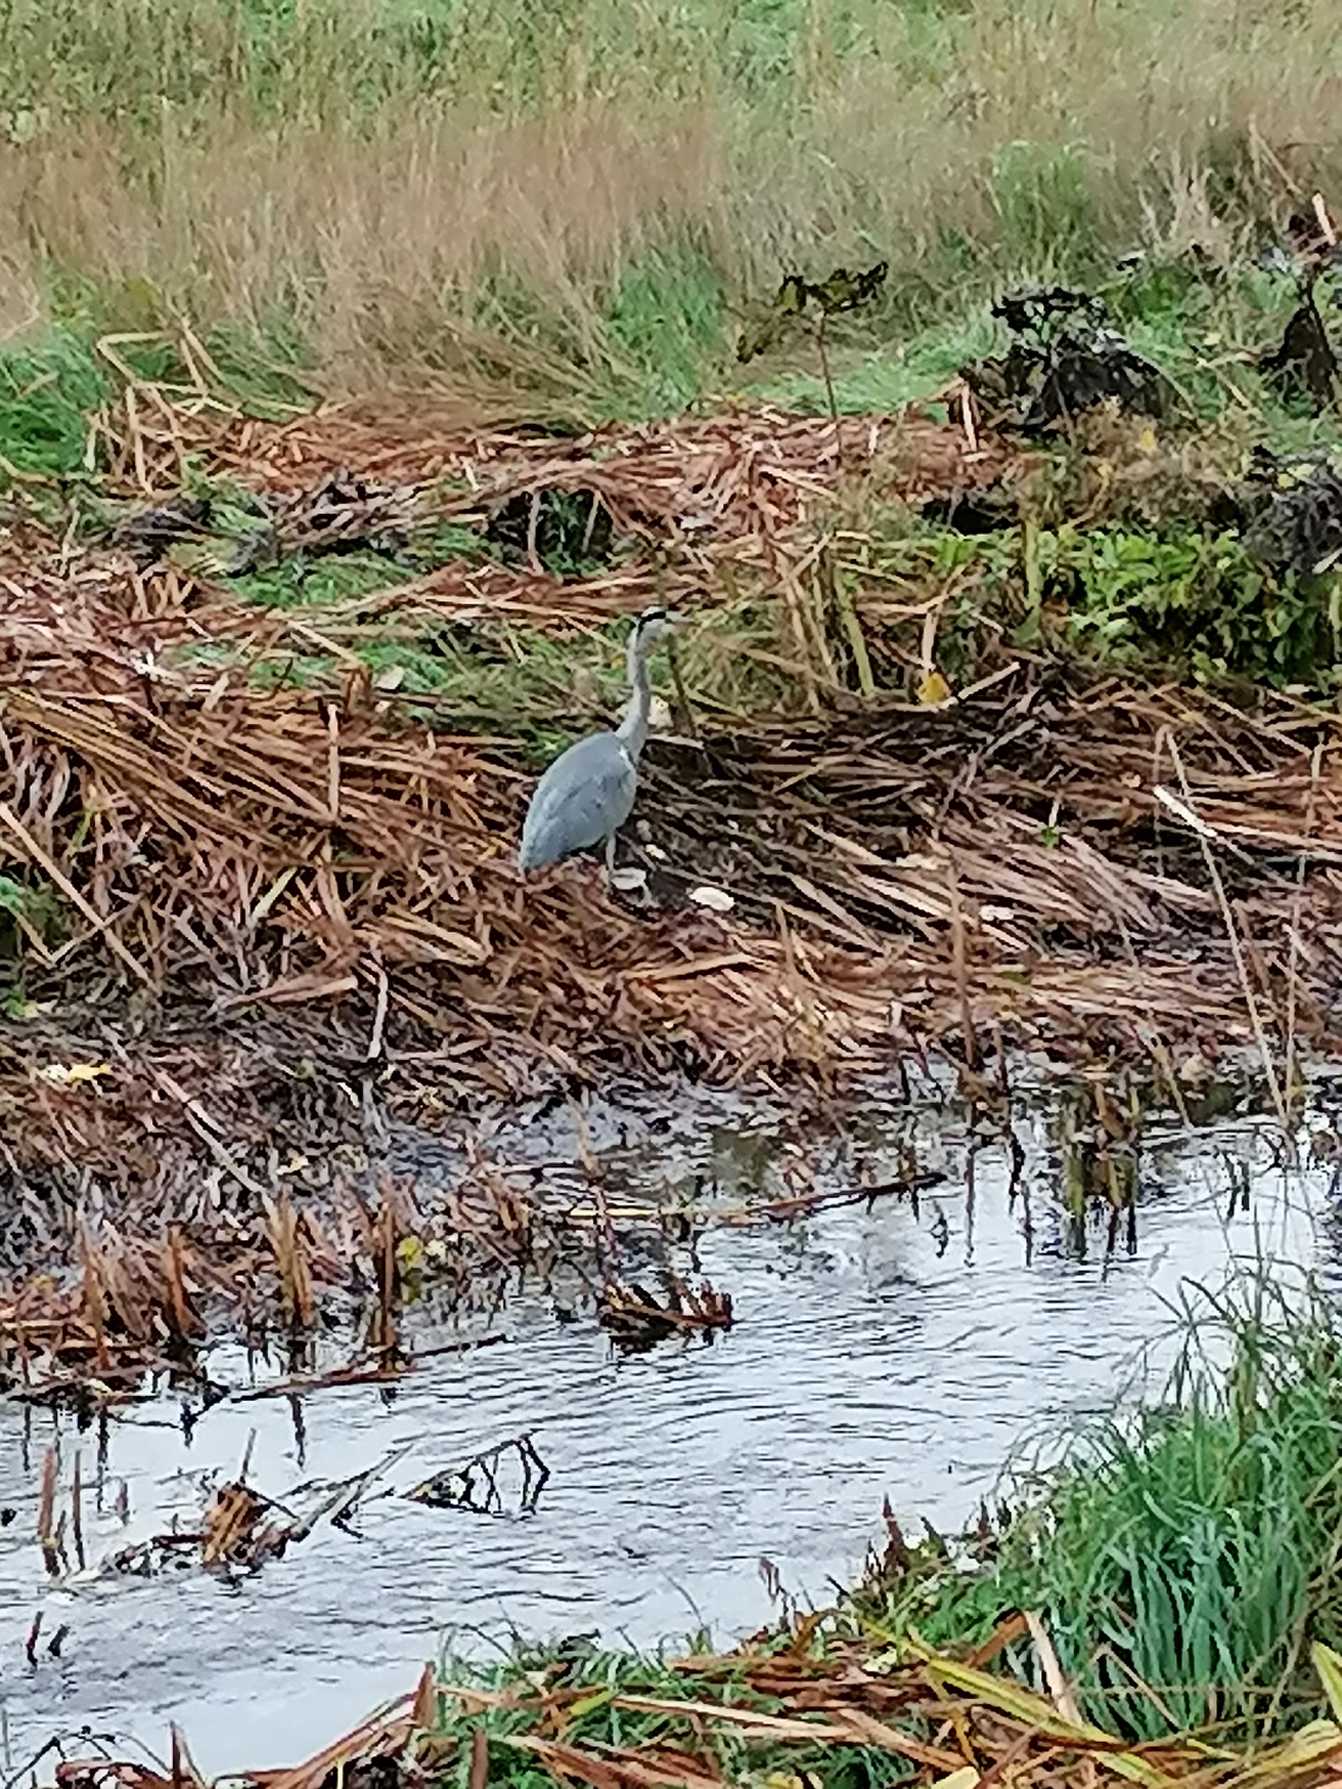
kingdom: Animalia
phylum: Chordata
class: Aves
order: Pelecaniformes
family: Ardeidae
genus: Ardea
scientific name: Ardea cinerea
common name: Fiskehejre
